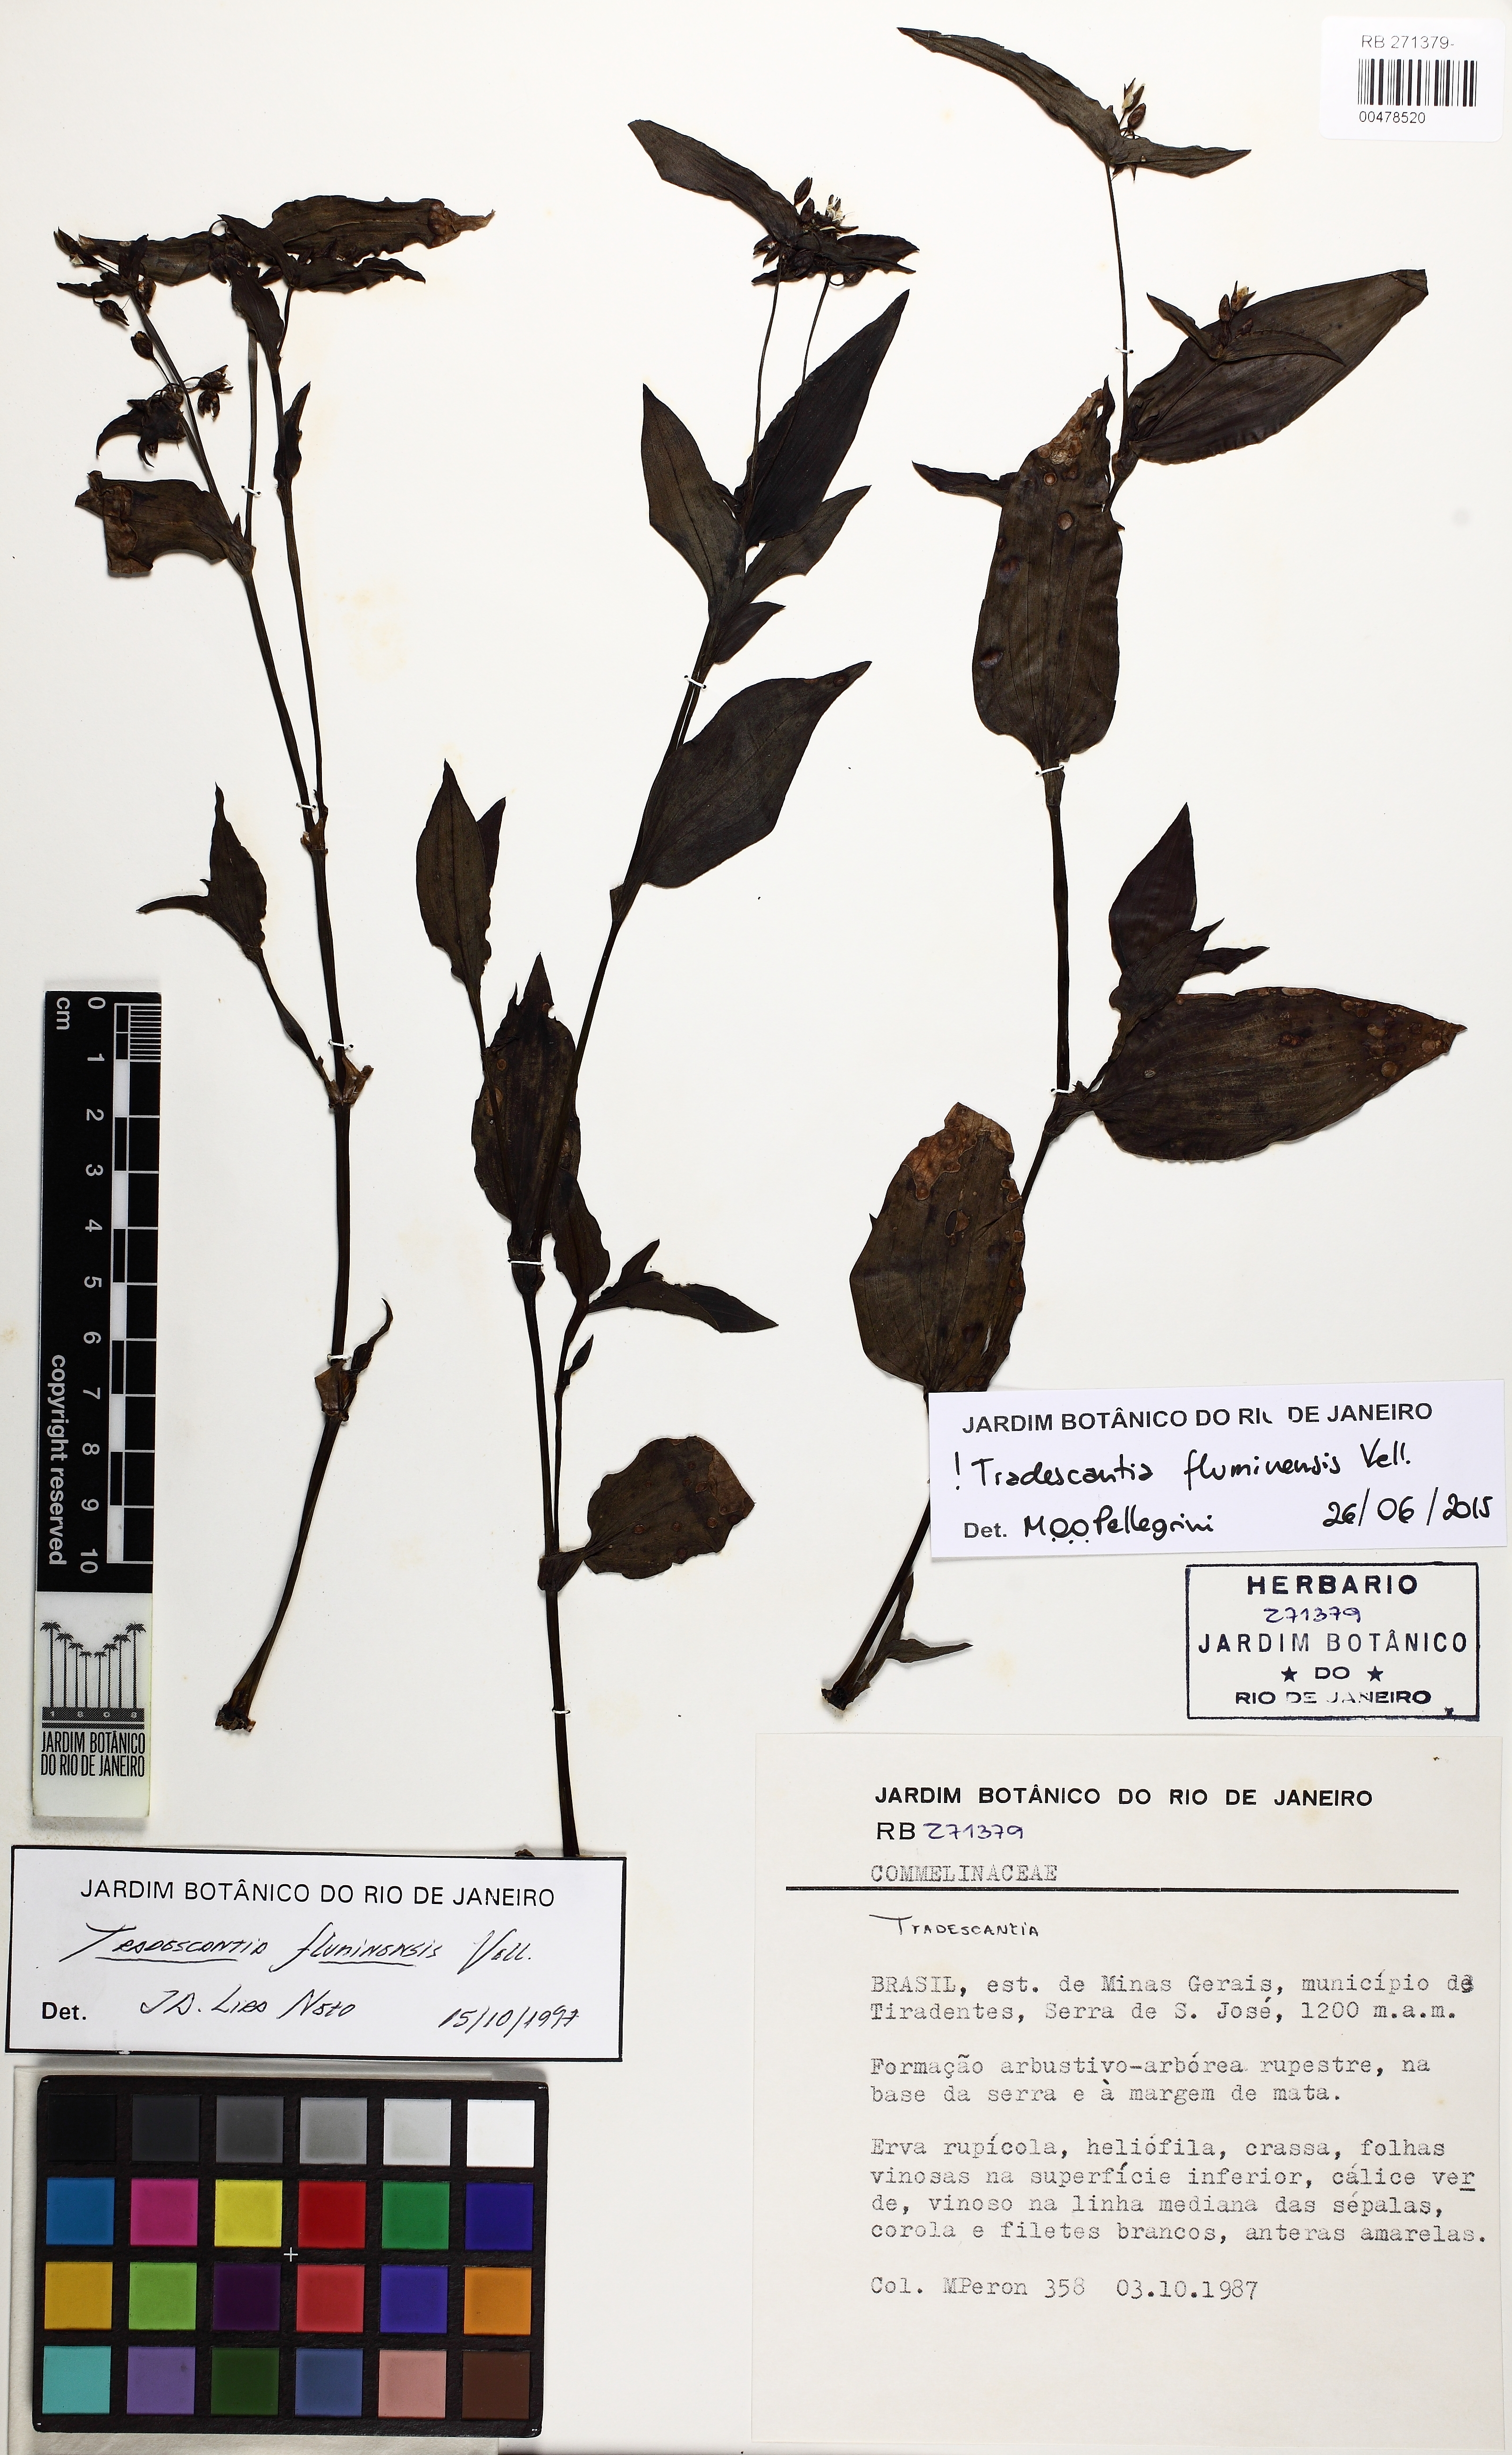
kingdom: Plantae
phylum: Tracheophyta
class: Liliopsida
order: Commelinales
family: Commelinaceae
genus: Tradescantia
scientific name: Tradescantia fluminensis
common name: Wandering-jew
